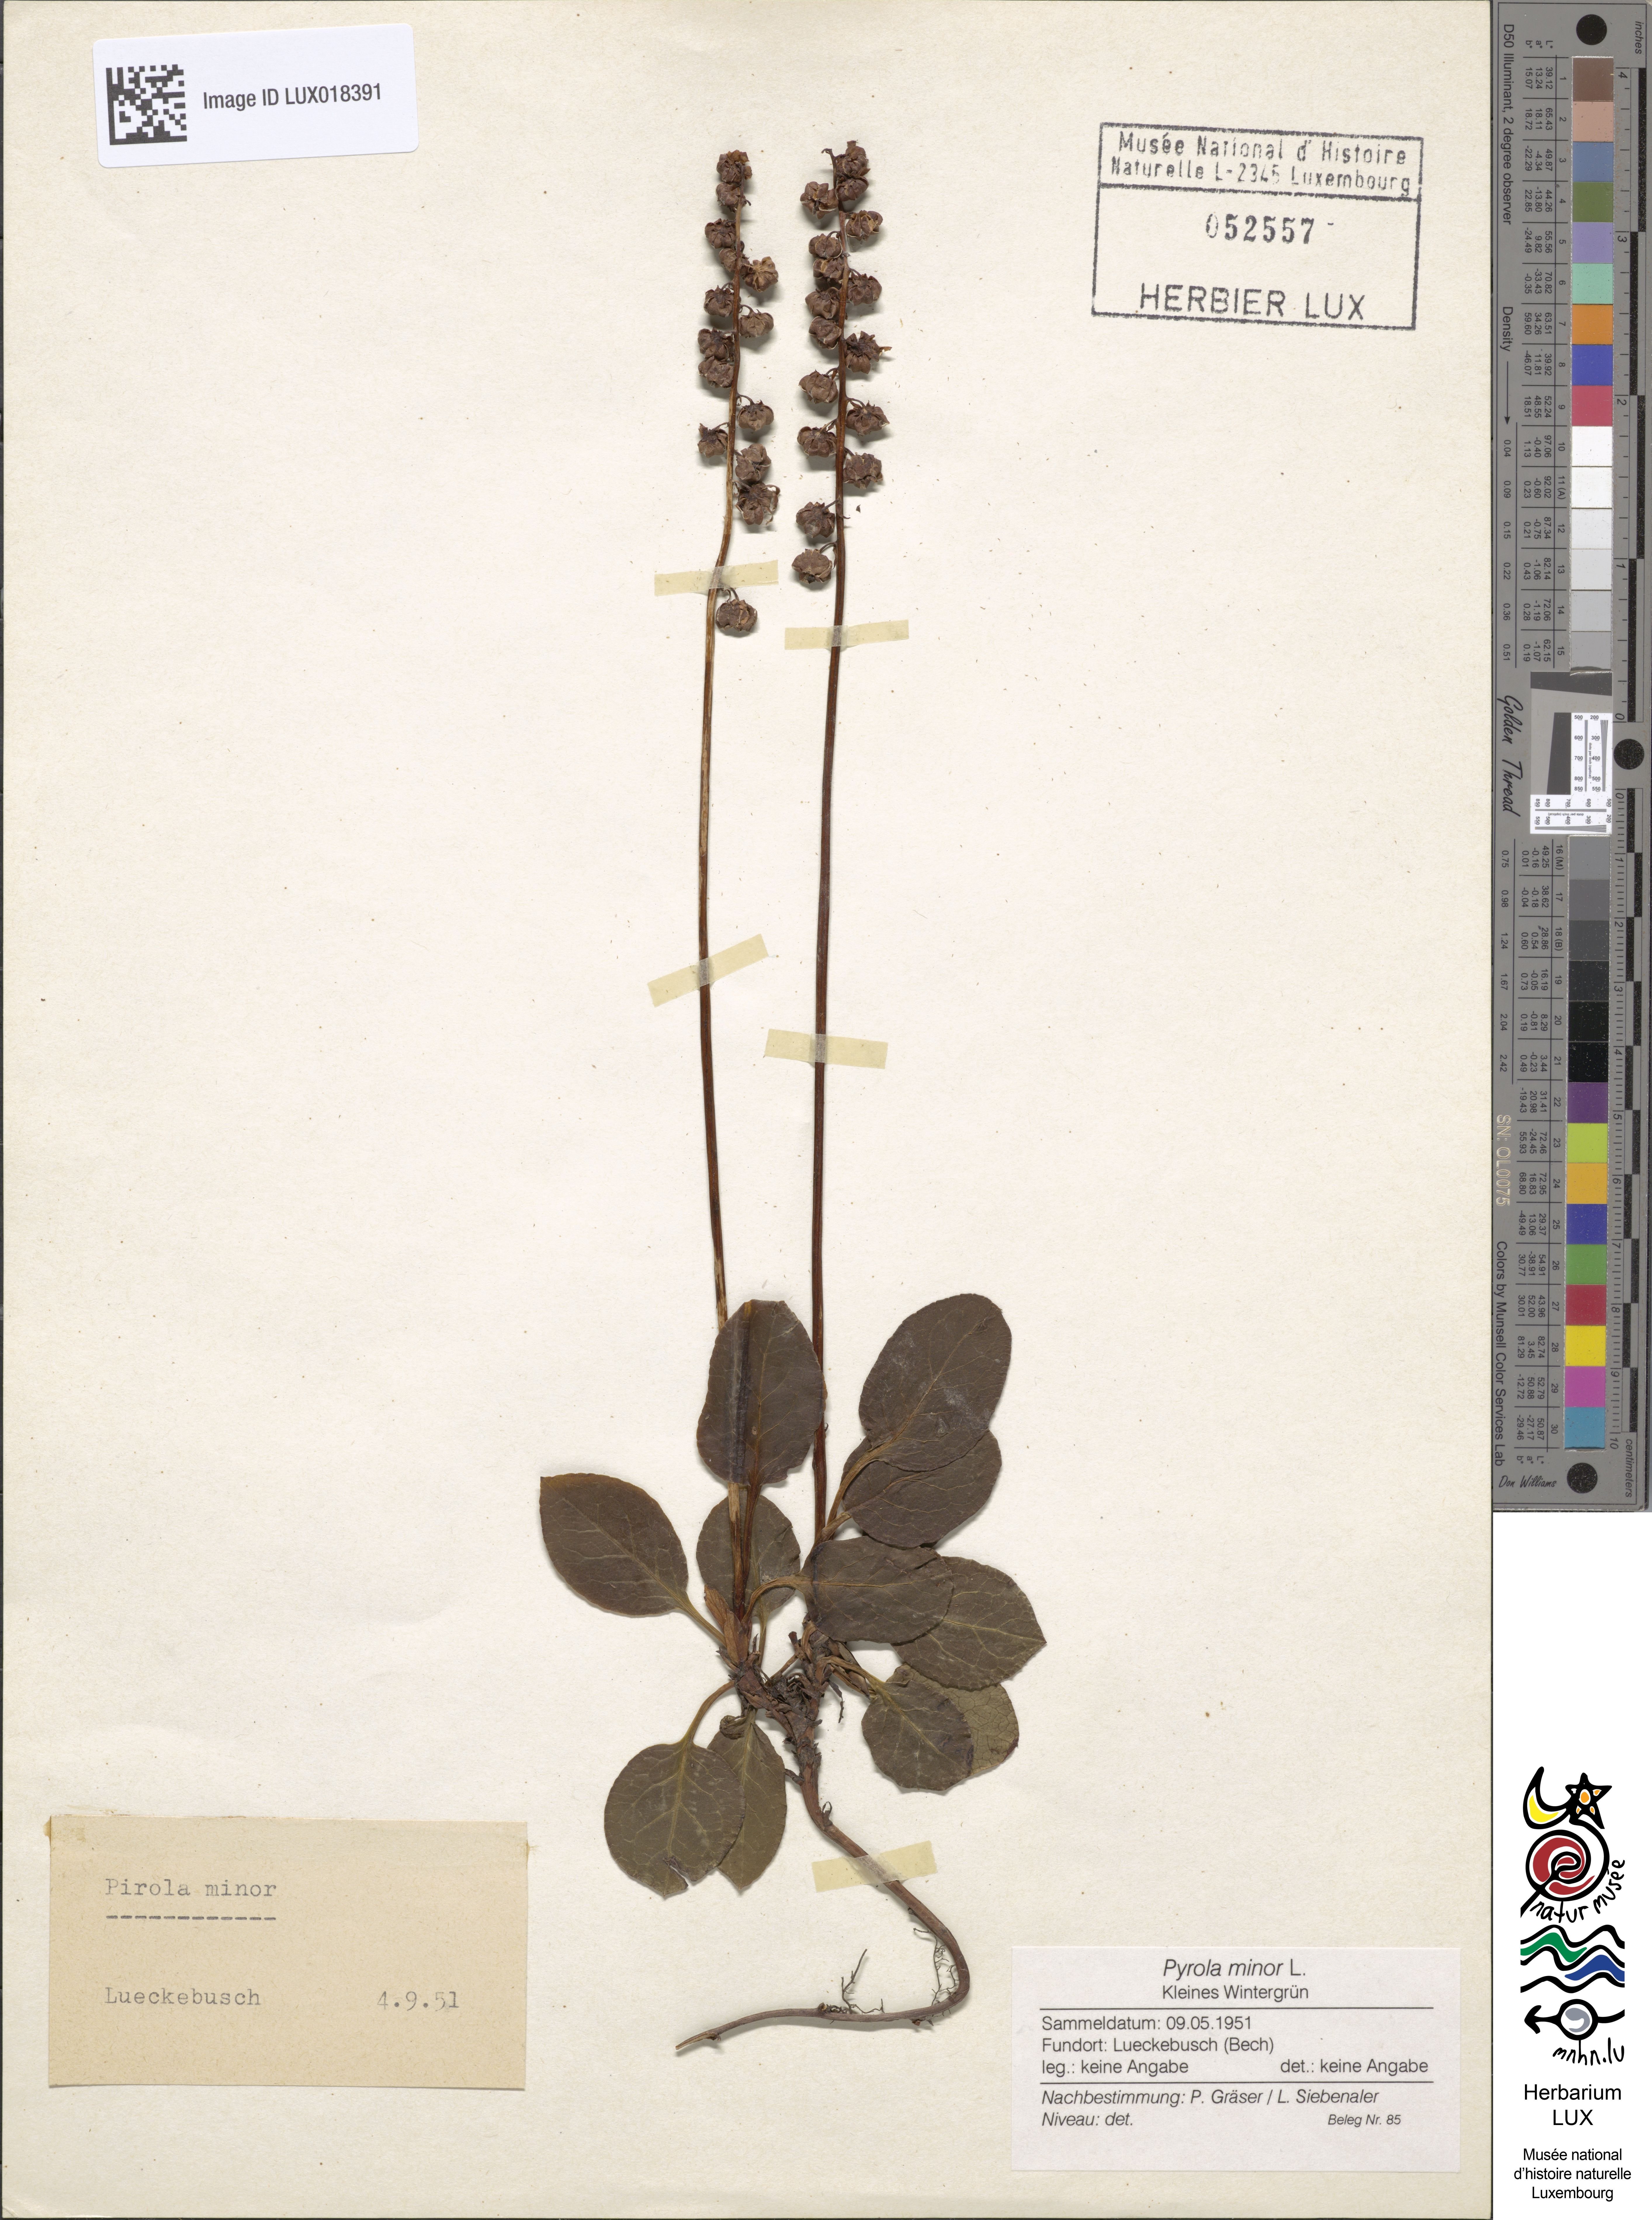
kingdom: Plantae
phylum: Tracheophyta
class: Magnoliopsida
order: Ericales
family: Ericaceae
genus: Pyrola
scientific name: Pyrola minor
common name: Common wintergreen
